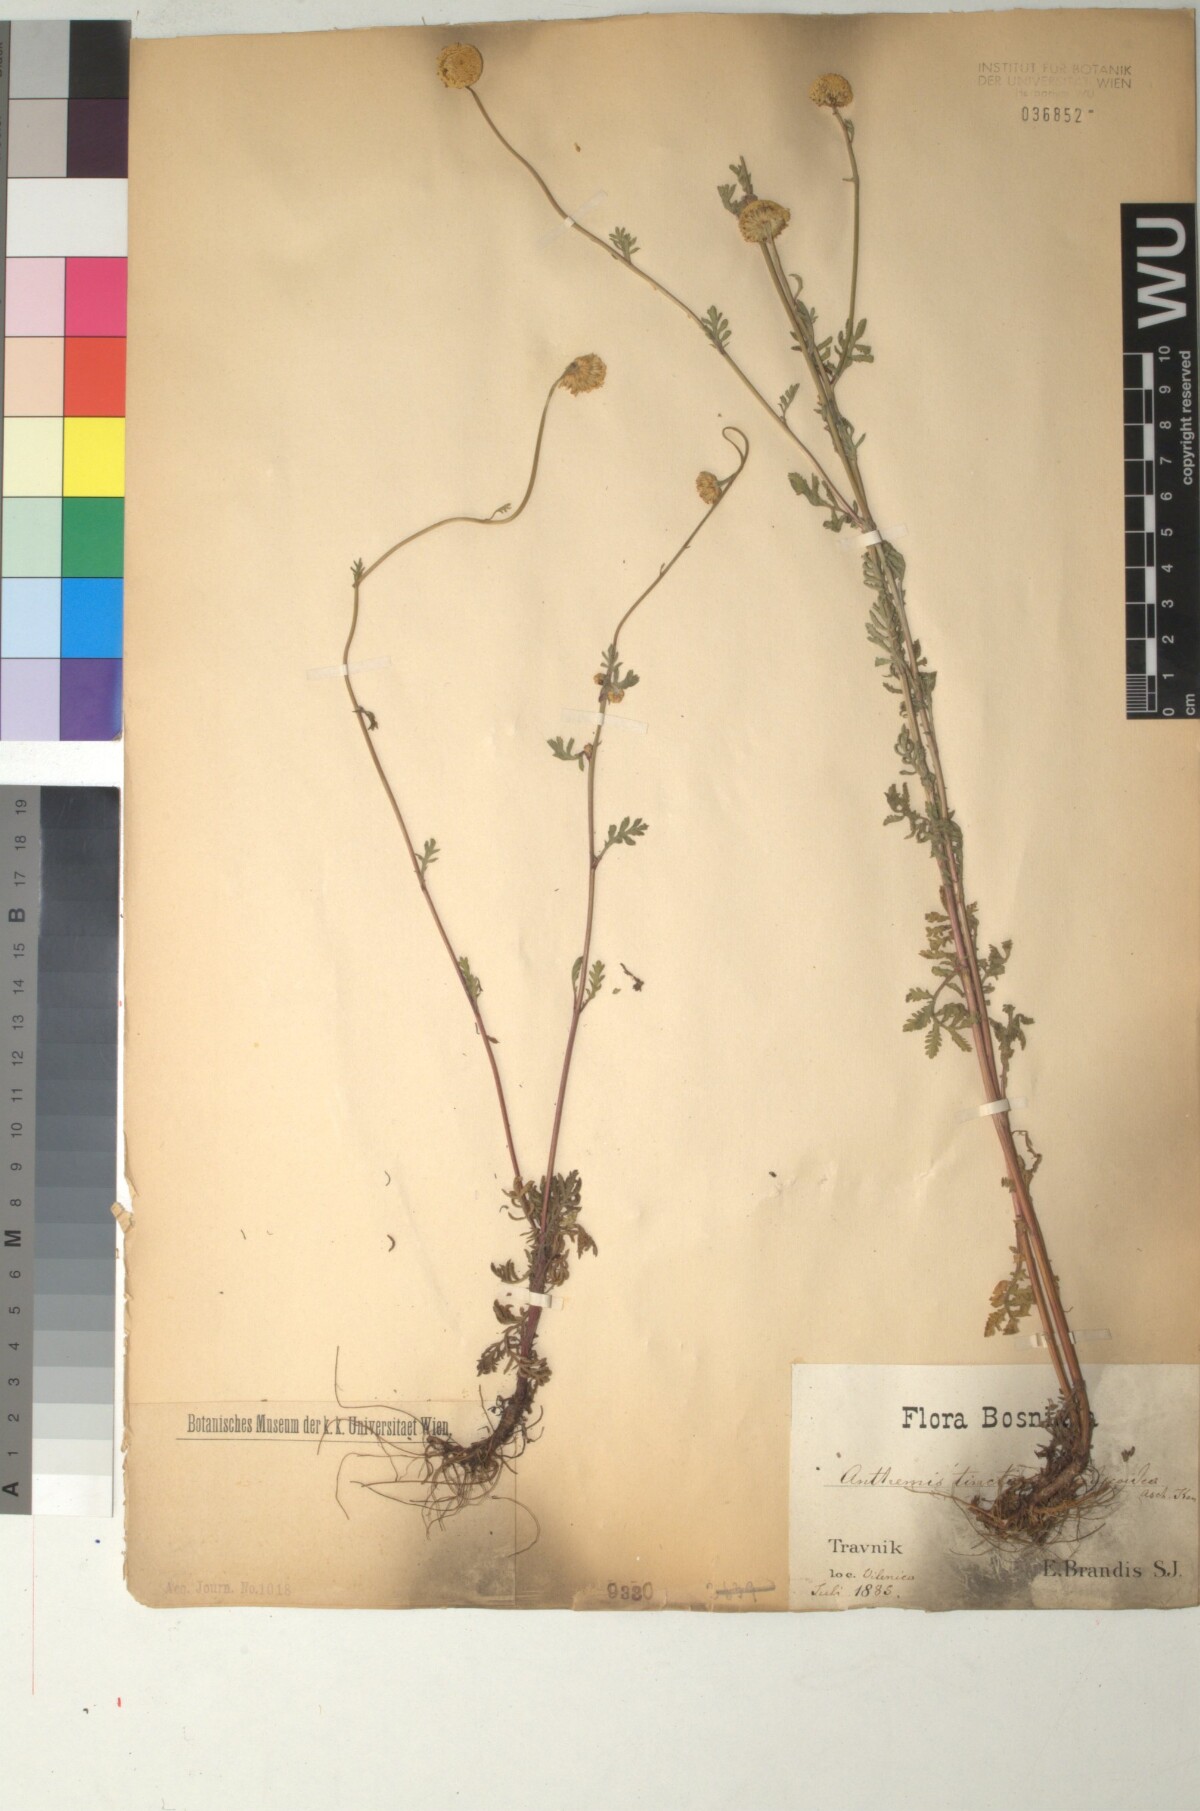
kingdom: Plantae
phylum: Tracheophyta
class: Magnoliopsida
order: Asterales
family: Asteraceae
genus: Cota
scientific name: Cota tinctoria
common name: Golden chamomile
